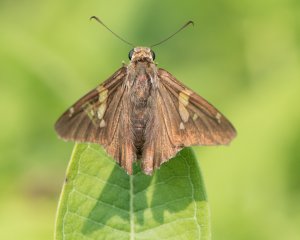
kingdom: Animalia
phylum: Arthropoda
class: Insecta
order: Lepidoptera
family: Hesperiidae
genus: Epargyreus
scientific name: Epargyreus clarus
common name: Silver-spotted Skipper
